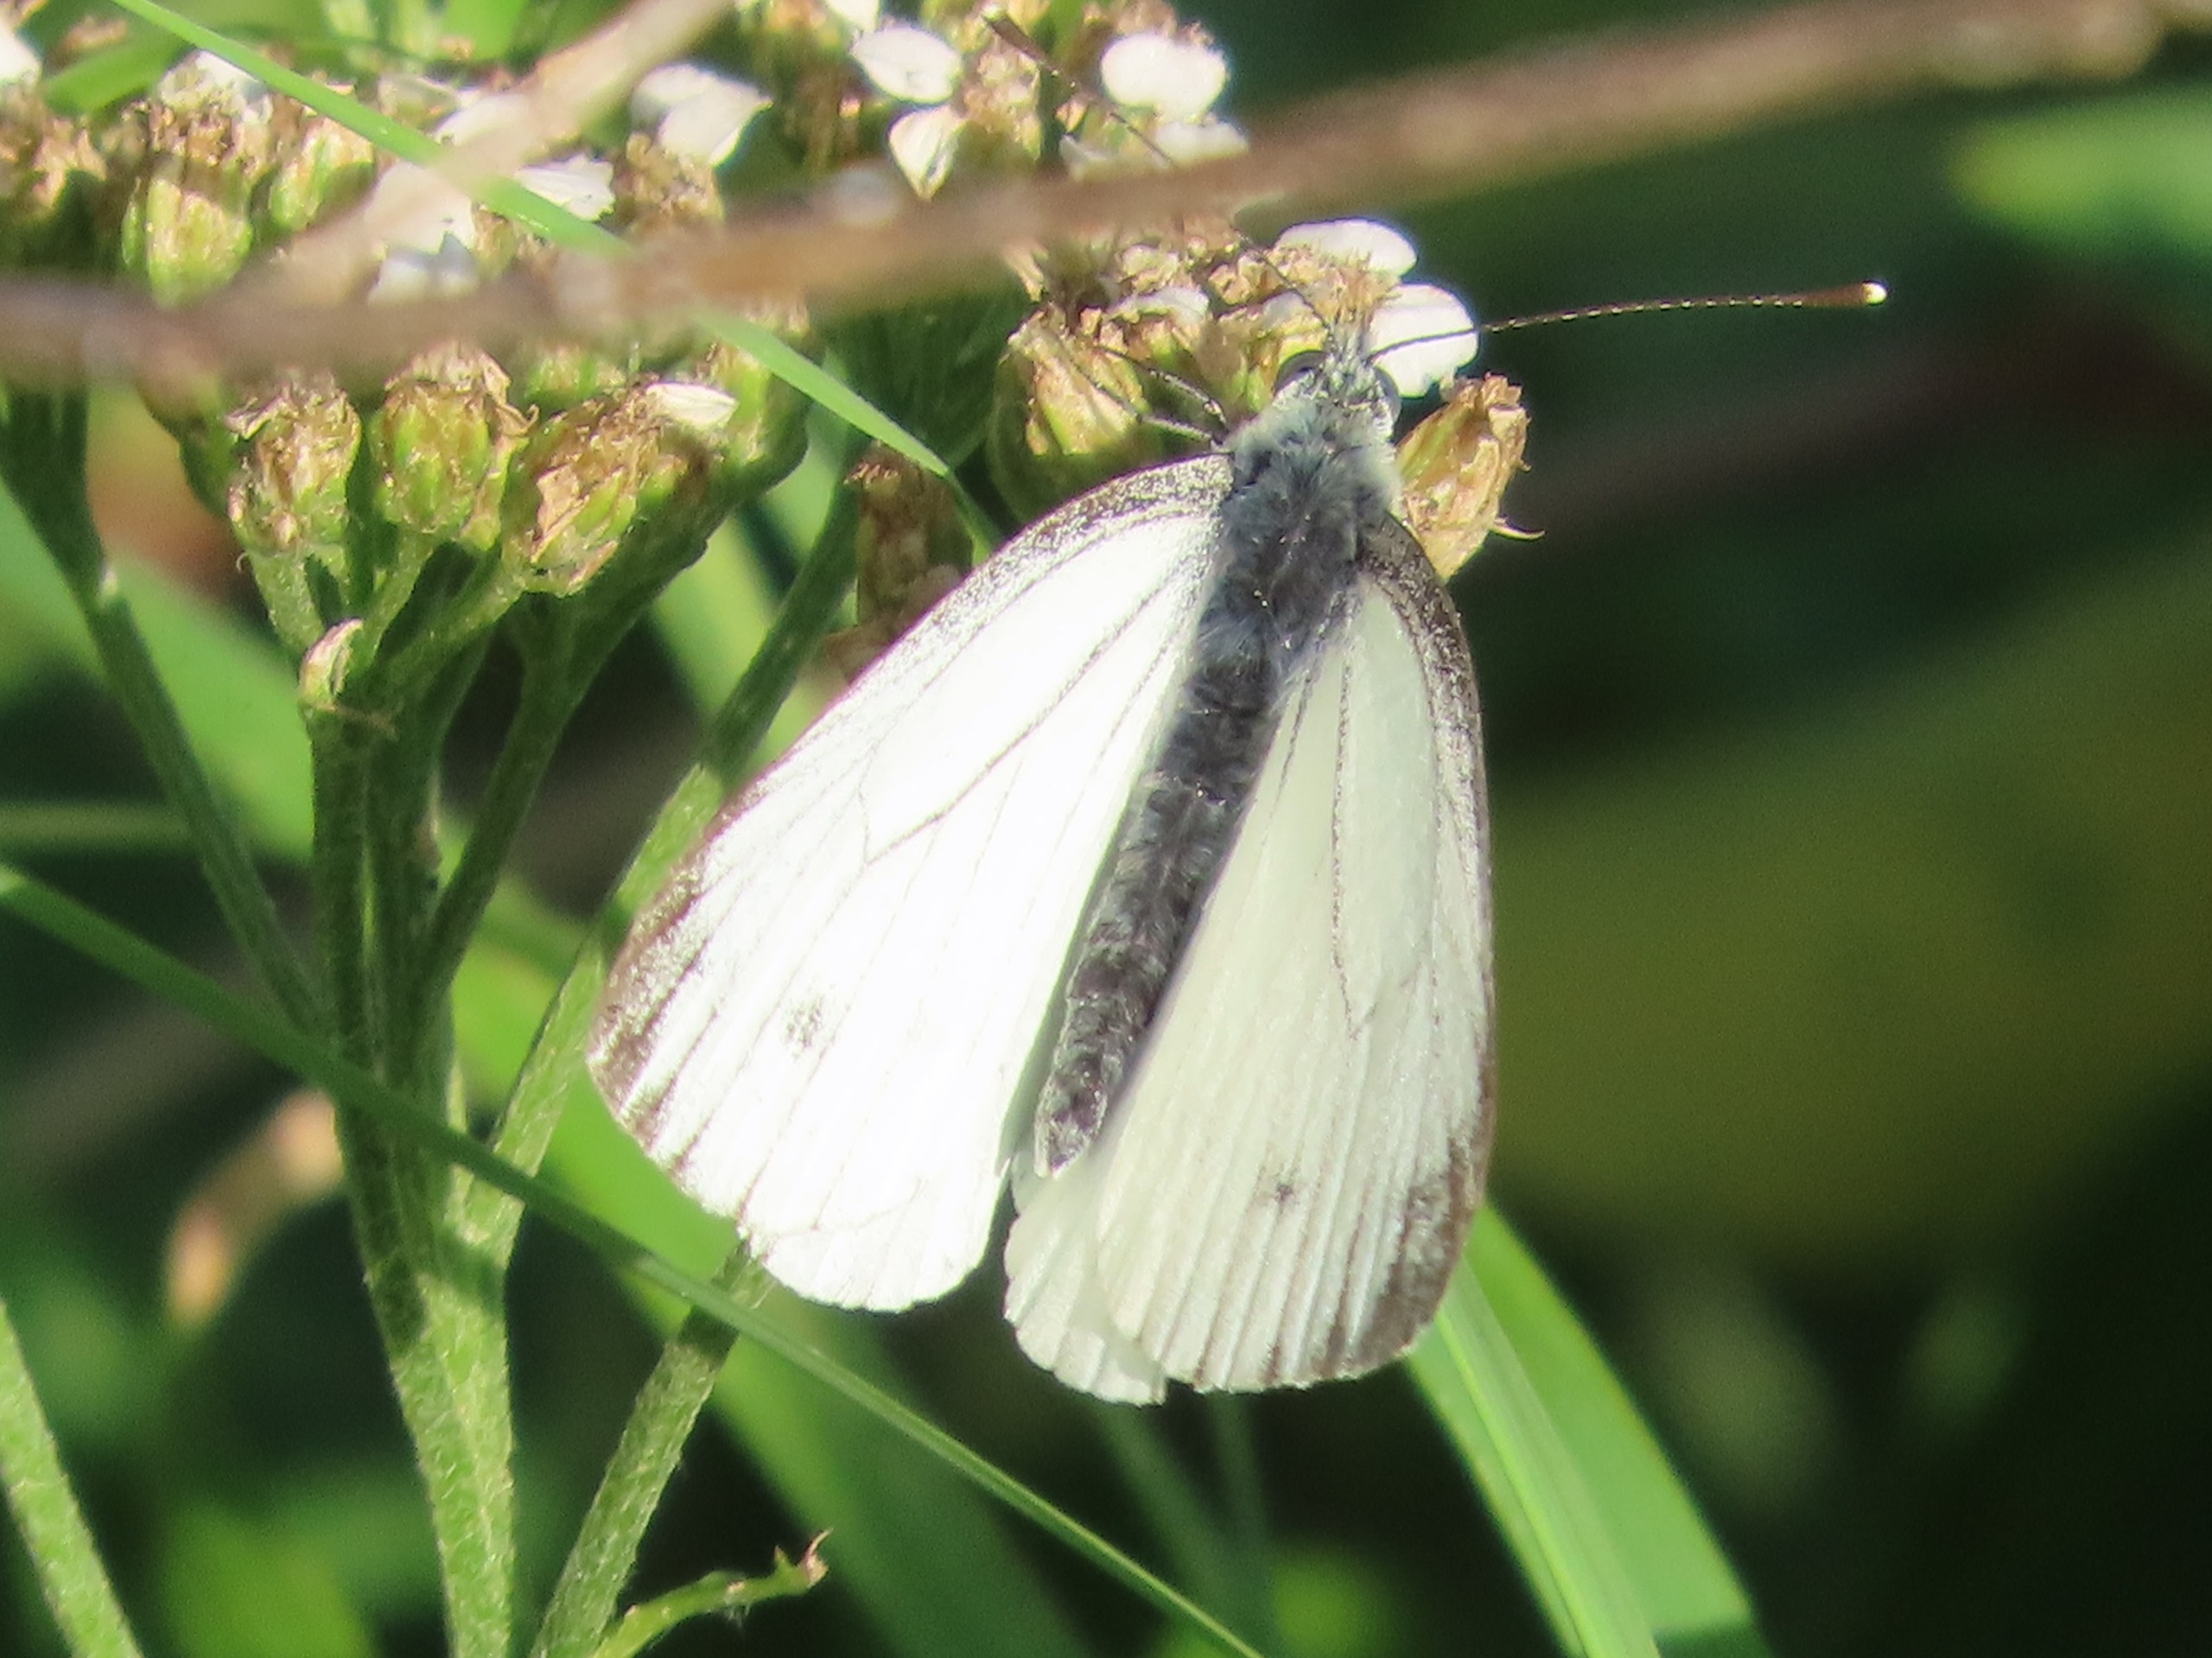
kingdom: Animalia
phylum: Arthropoda
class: Insecta
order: Lepidoptera
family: Pieridae
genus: Pieris
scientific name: Pieris napi
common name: Grønåret kålsommerfugl
